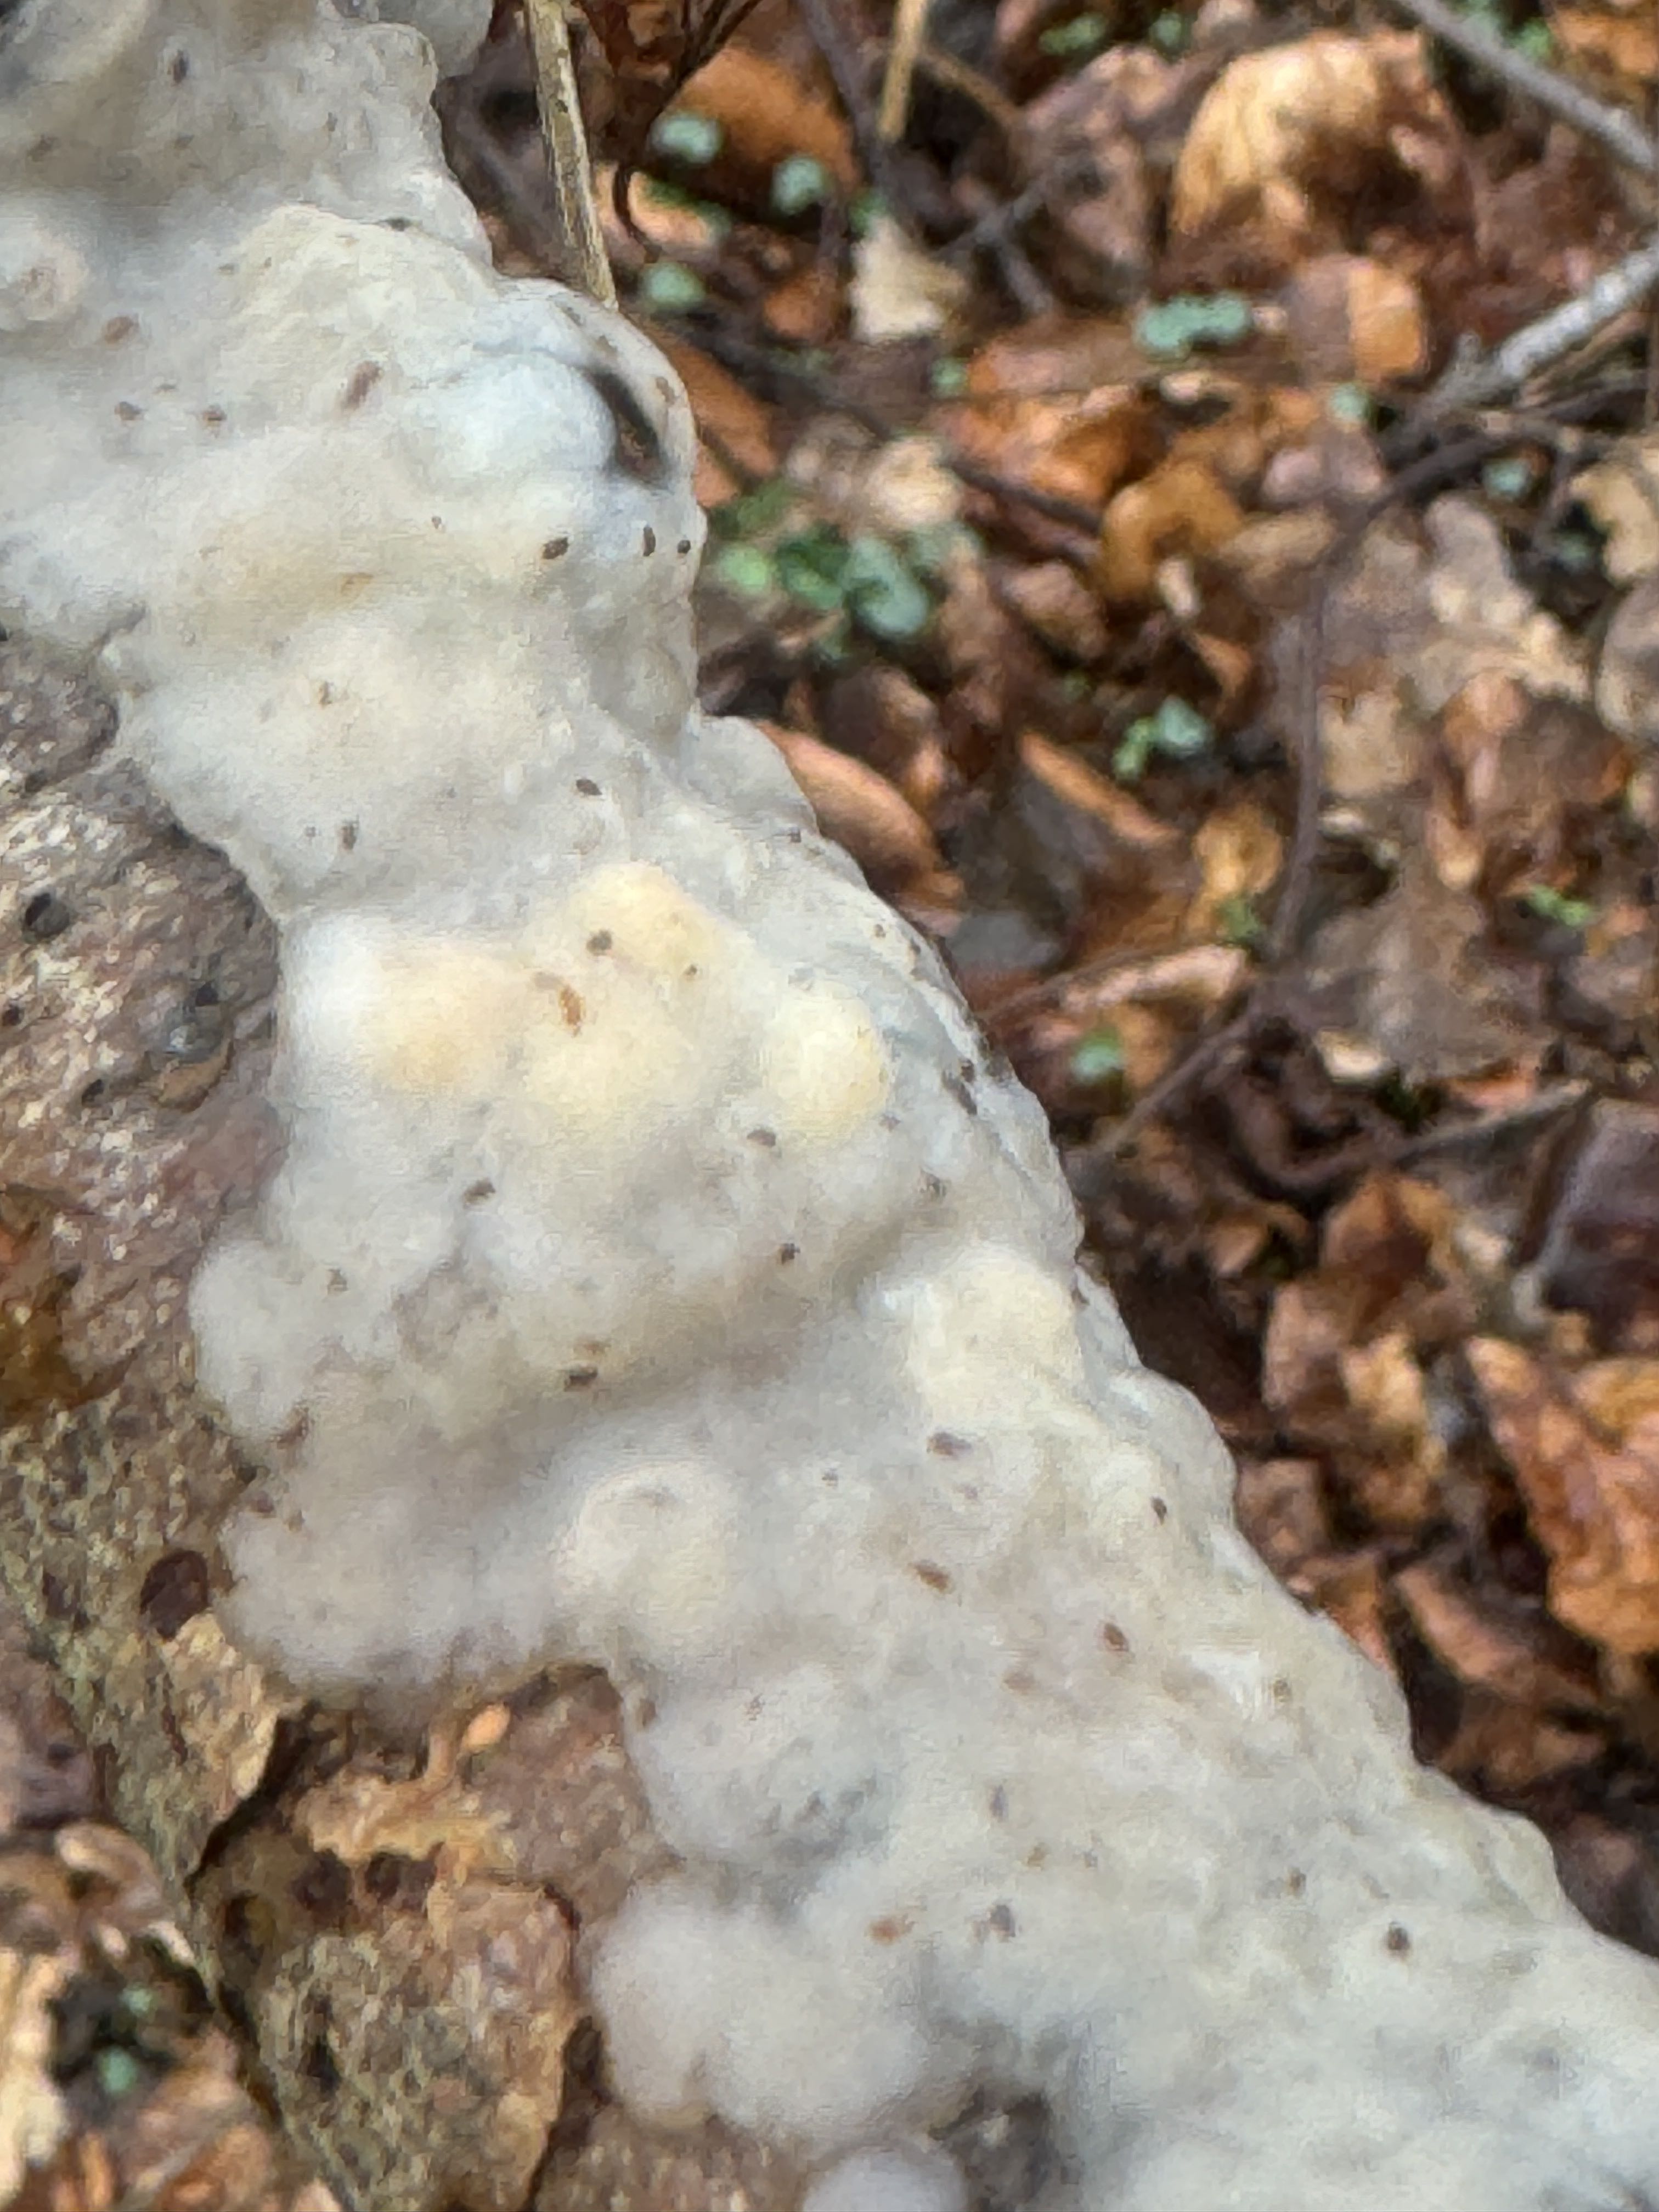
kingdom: Fungi
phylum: Basidiomycota
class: Agaricomycetes
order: Auriculariales
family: Auriculariaceae
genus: Exidia
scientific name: Exidia thuretiana
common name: hvidlig bævretop
